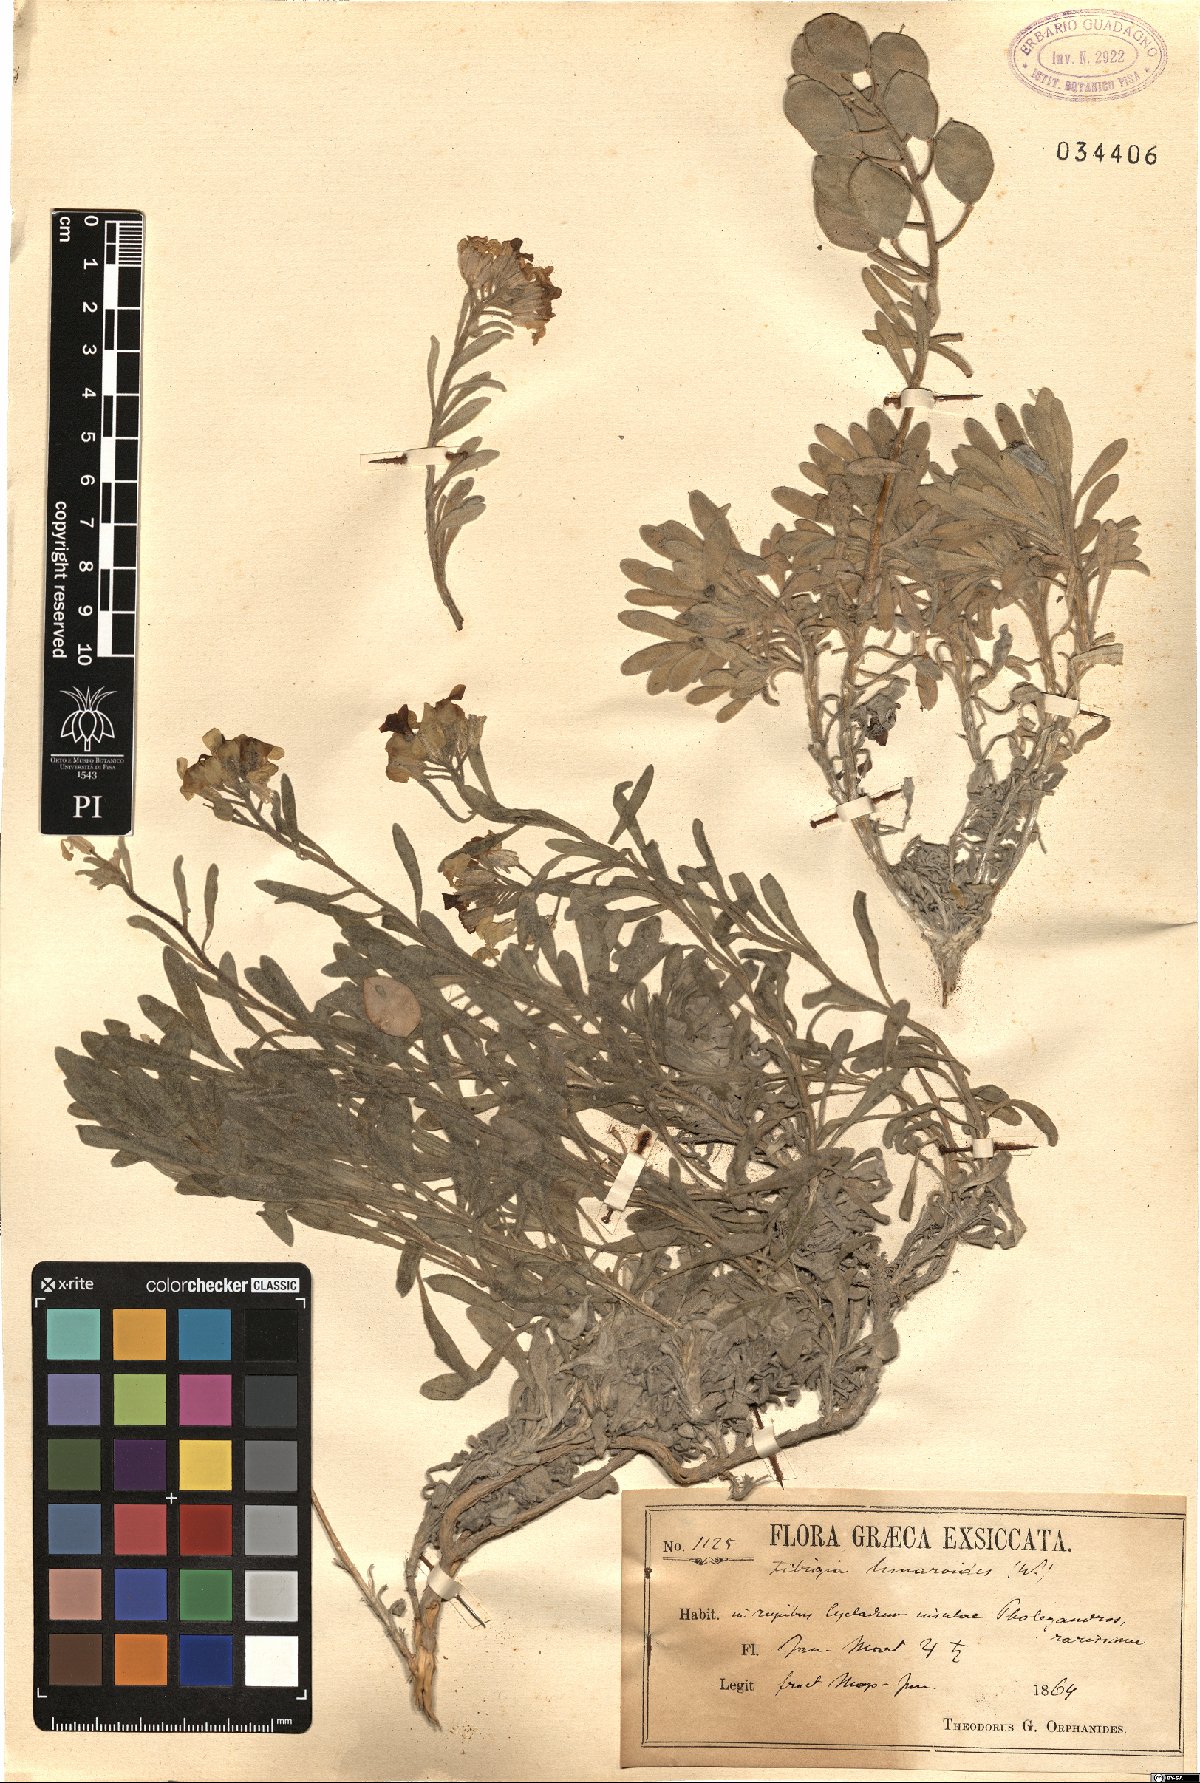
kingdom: Plantae
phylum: Tracheophyta
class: Magnoliopsida
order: Brassicales
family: Brassicaceae
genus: Acuston
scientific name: Acuston perenne
